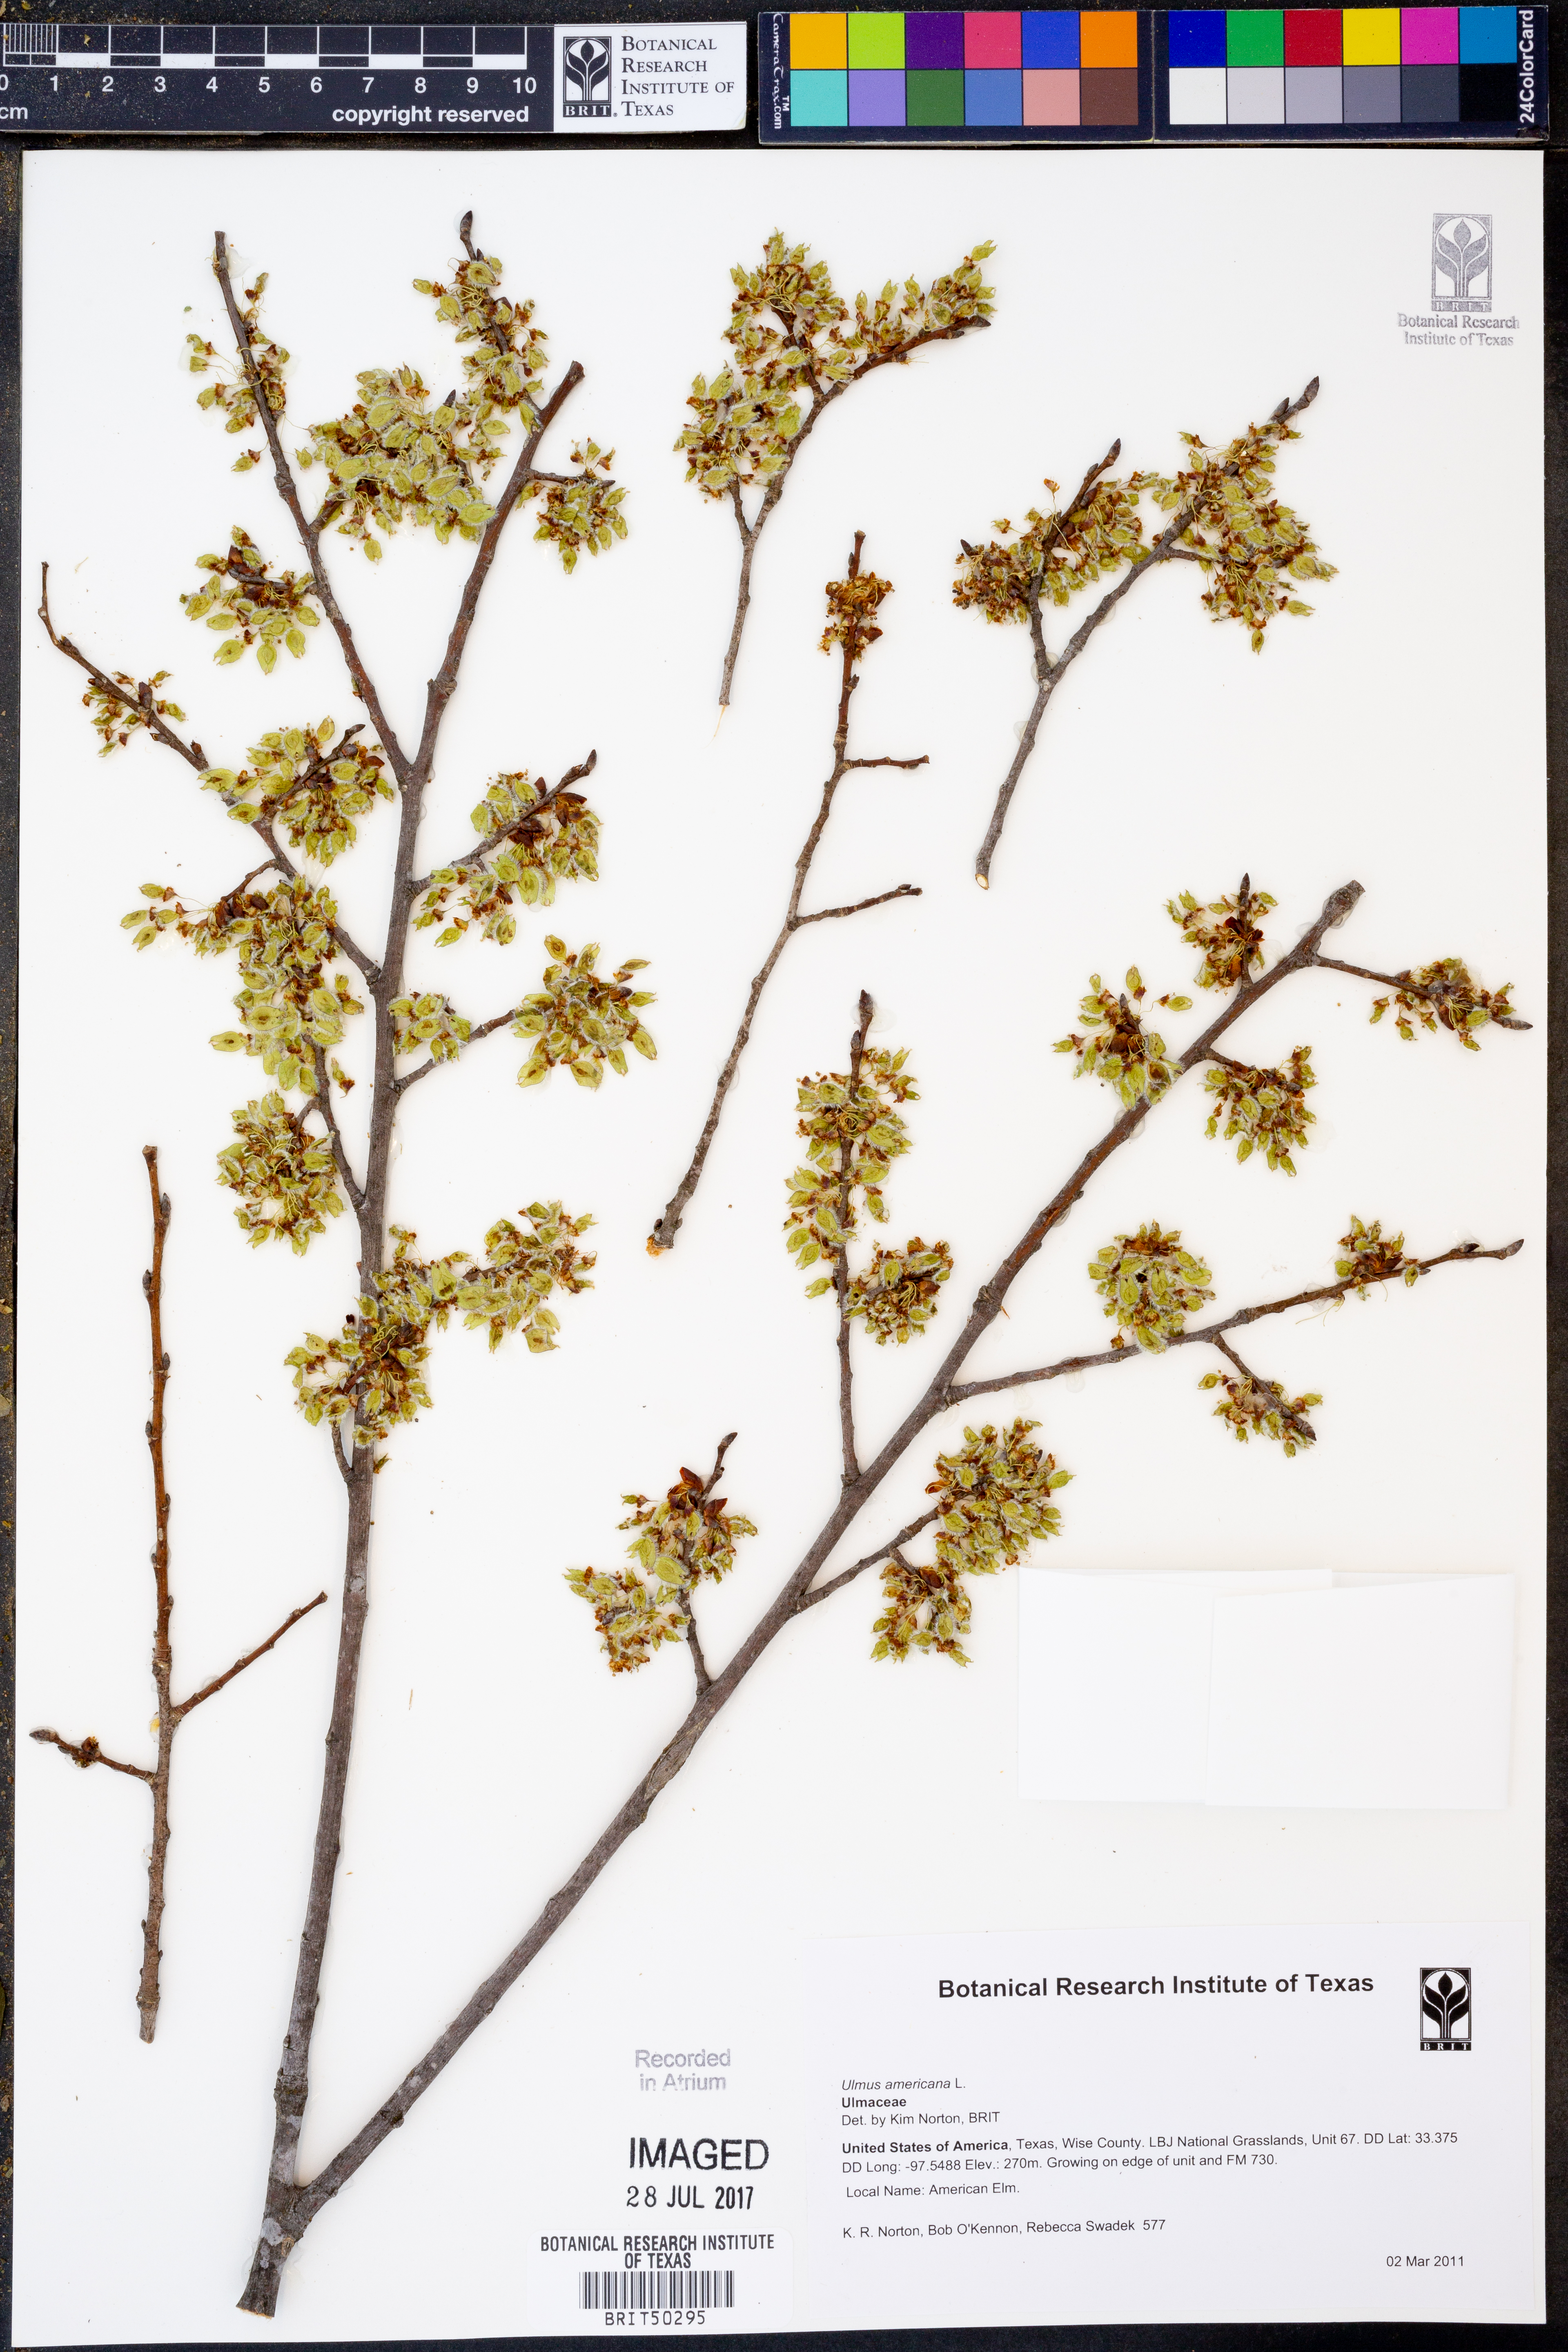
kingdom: Plantae
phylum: Tracheophyta
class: Magnoliopsida
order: Rosales
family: Ulmaceae
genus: Ulmus
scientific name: Ulmus americana
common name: American elm
